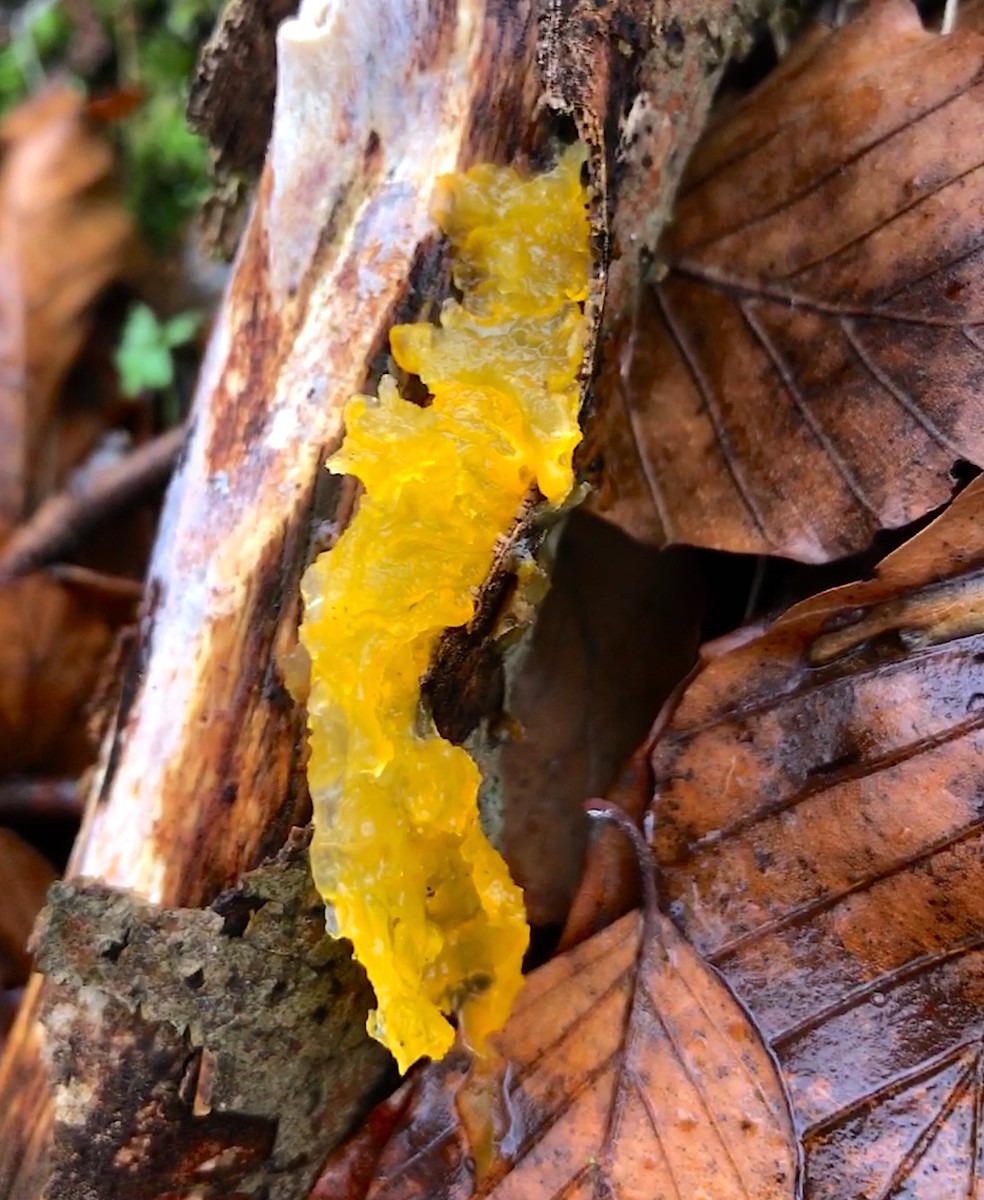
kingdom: Fungi
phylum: Basidiomycota
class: Tremellomycetes
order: Tremellales
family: Tremellaceae
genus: Tremella
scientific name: Tremella mesenterica
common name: gul bævresvamp
